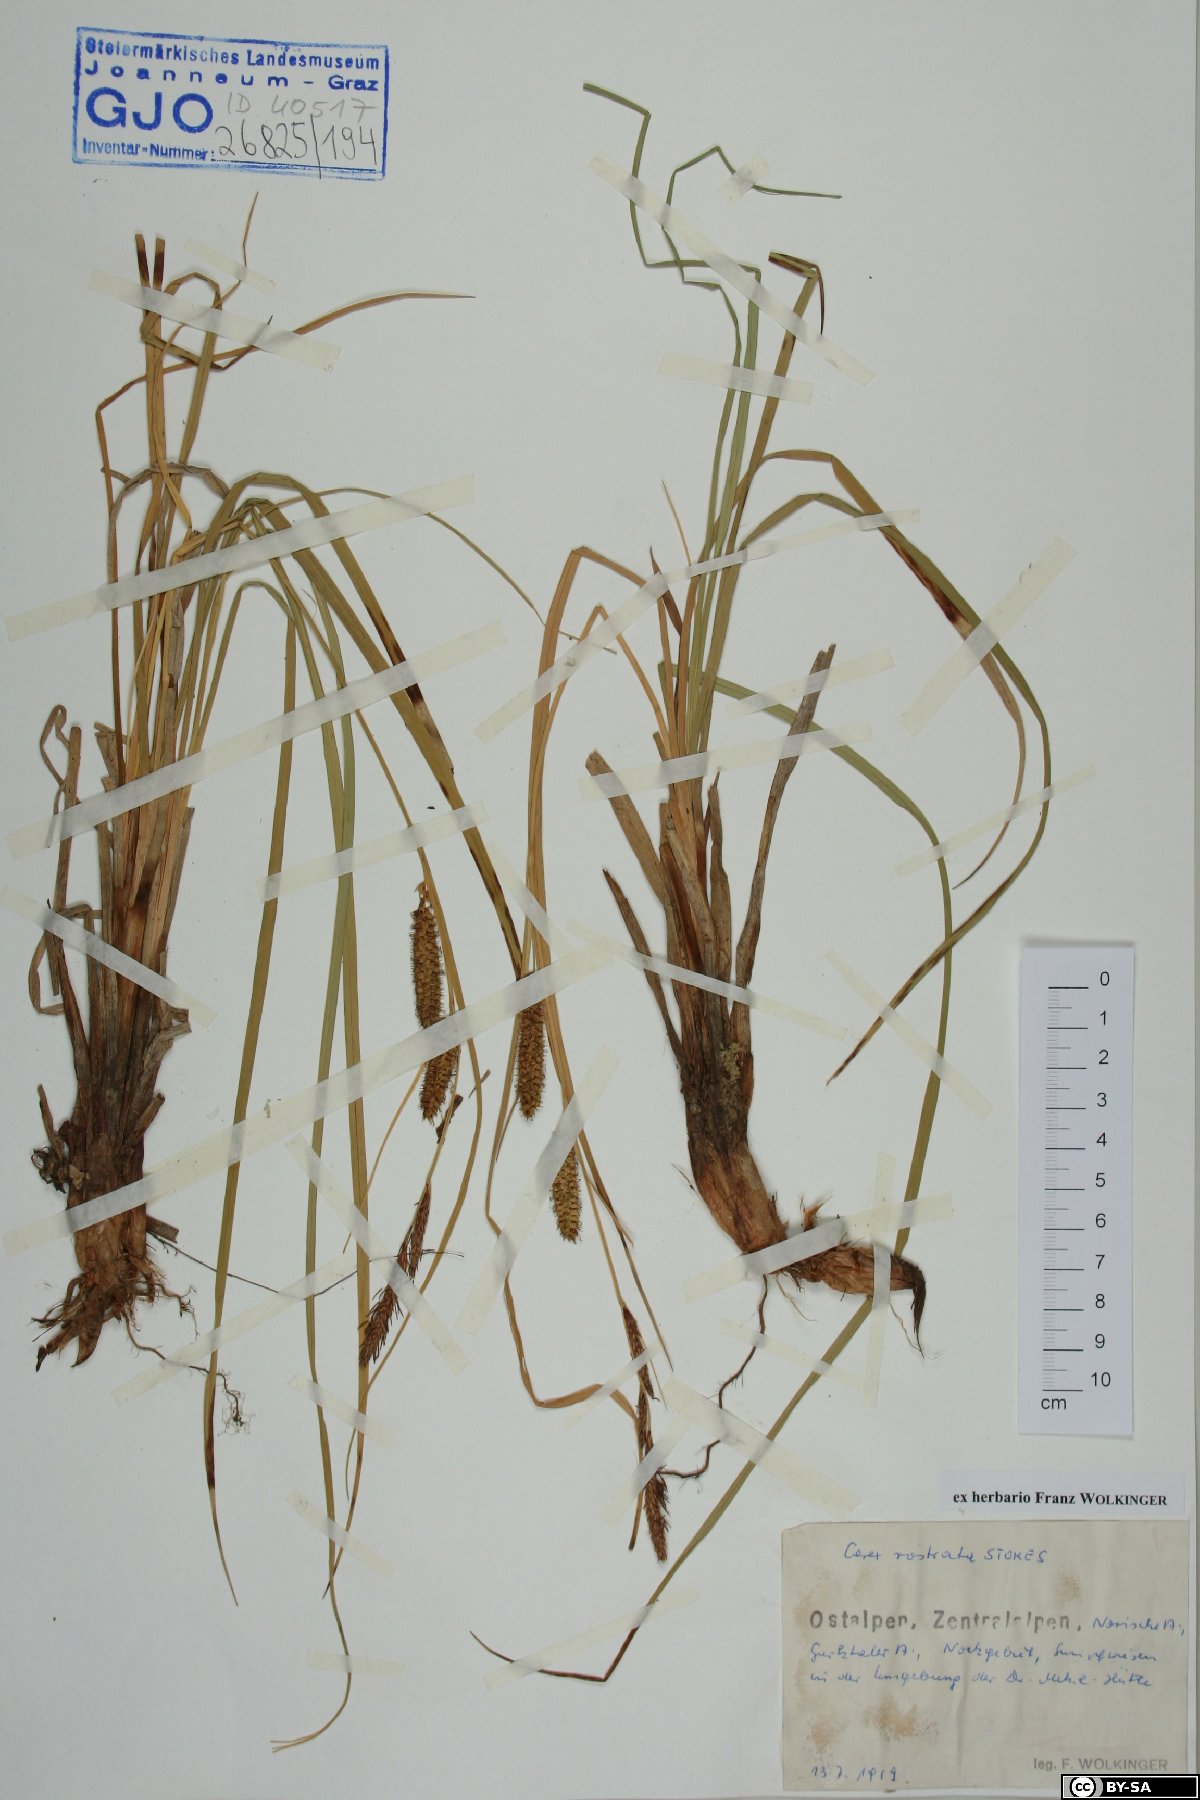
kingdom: Plantae
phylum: Tracheophyta
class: Liliopsida
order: Poales
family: Cyperaceae
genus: Carex
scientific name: Carex rostrata
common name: Bottle sedge
